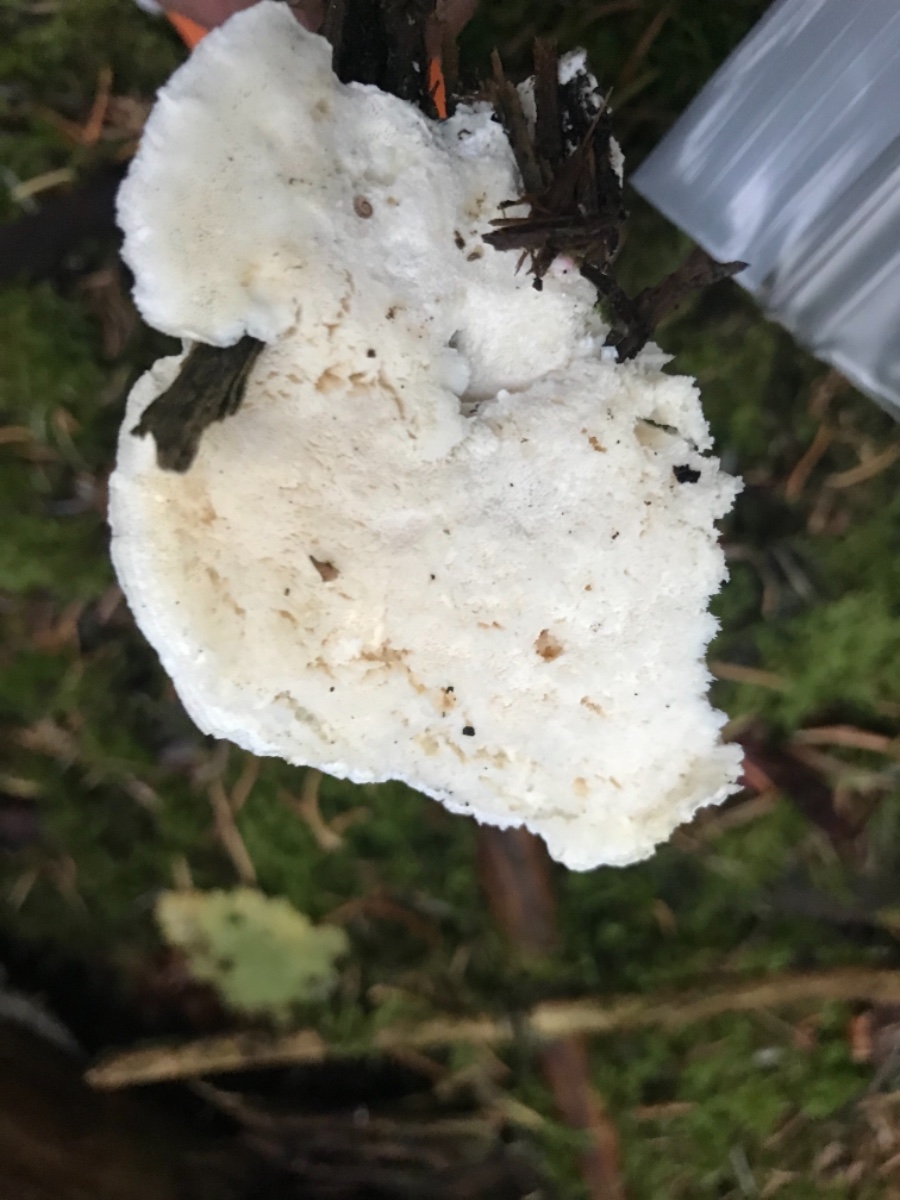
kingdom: Fungi
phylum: Basidiomycota
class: Agaricomycetes
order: Polyporales
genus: Amaropostia
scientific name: Amaropostia stiptica
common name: bitter kødporesvamp
